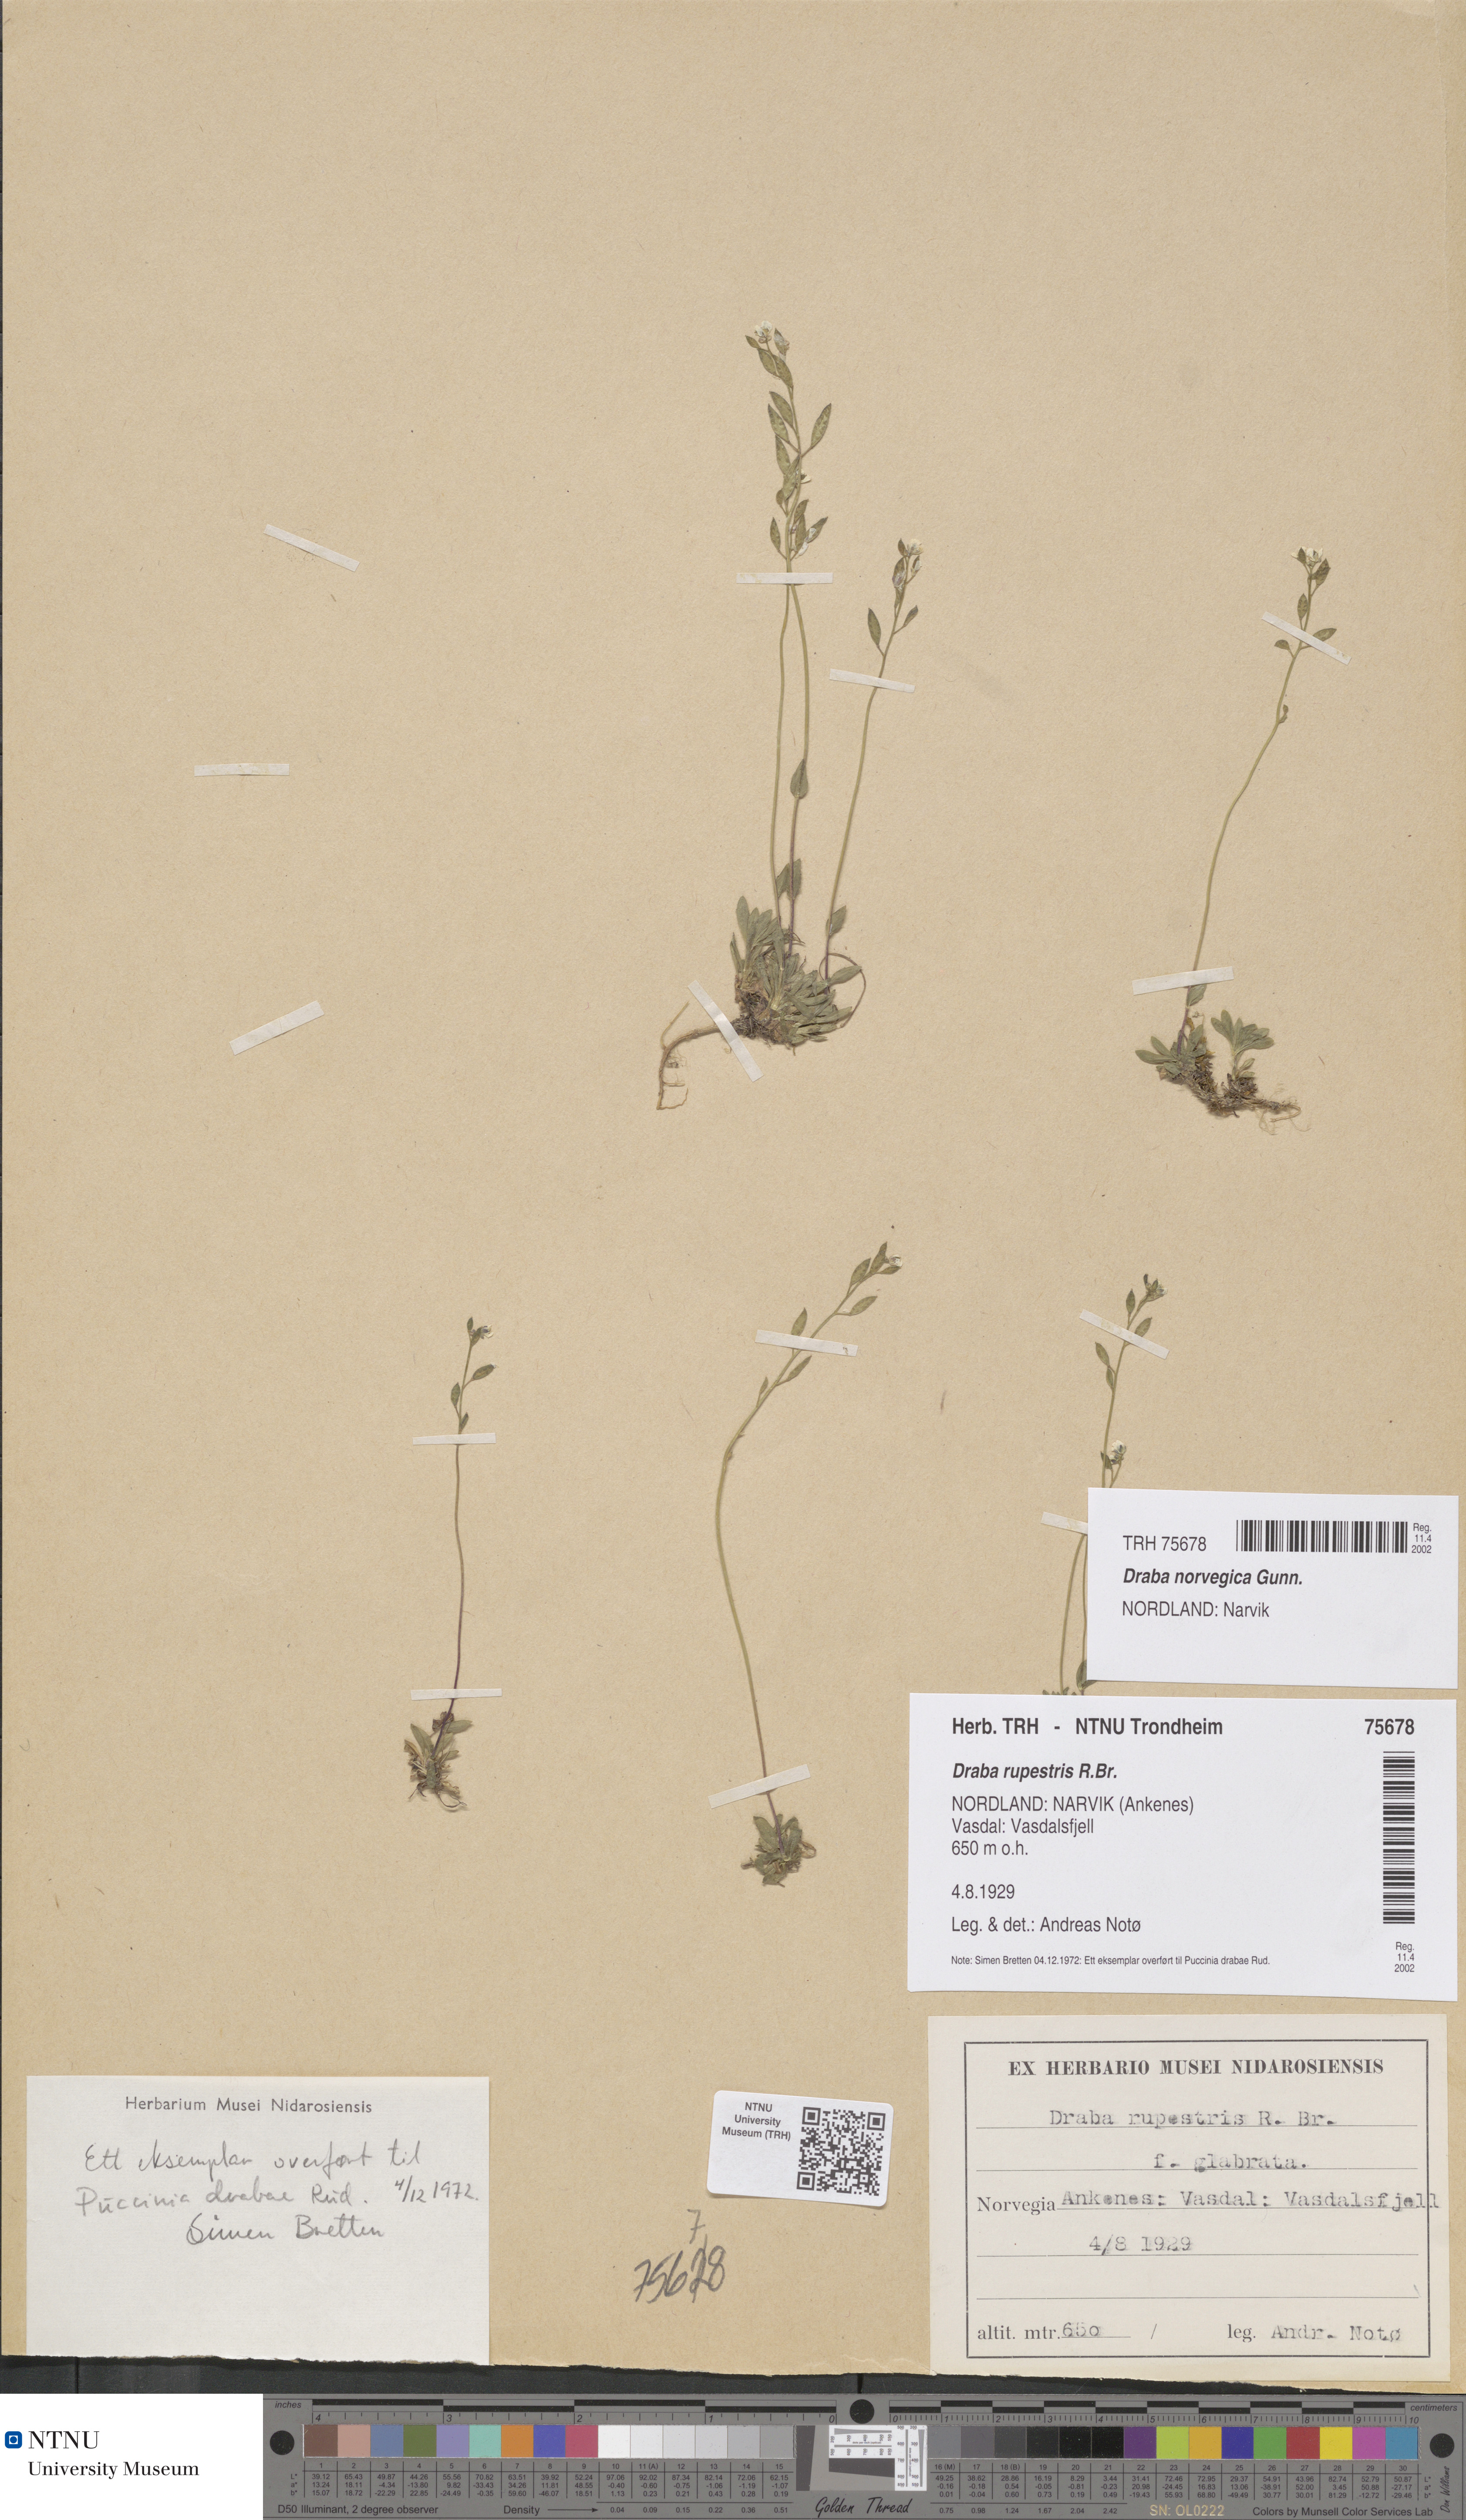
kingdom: Plantae
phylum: Tracheophyta
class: Magnoliopsida
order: Brassicales
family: Brassicaceae
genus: Draba
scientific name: Draba norvegica
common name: Rock whitlowgrass
